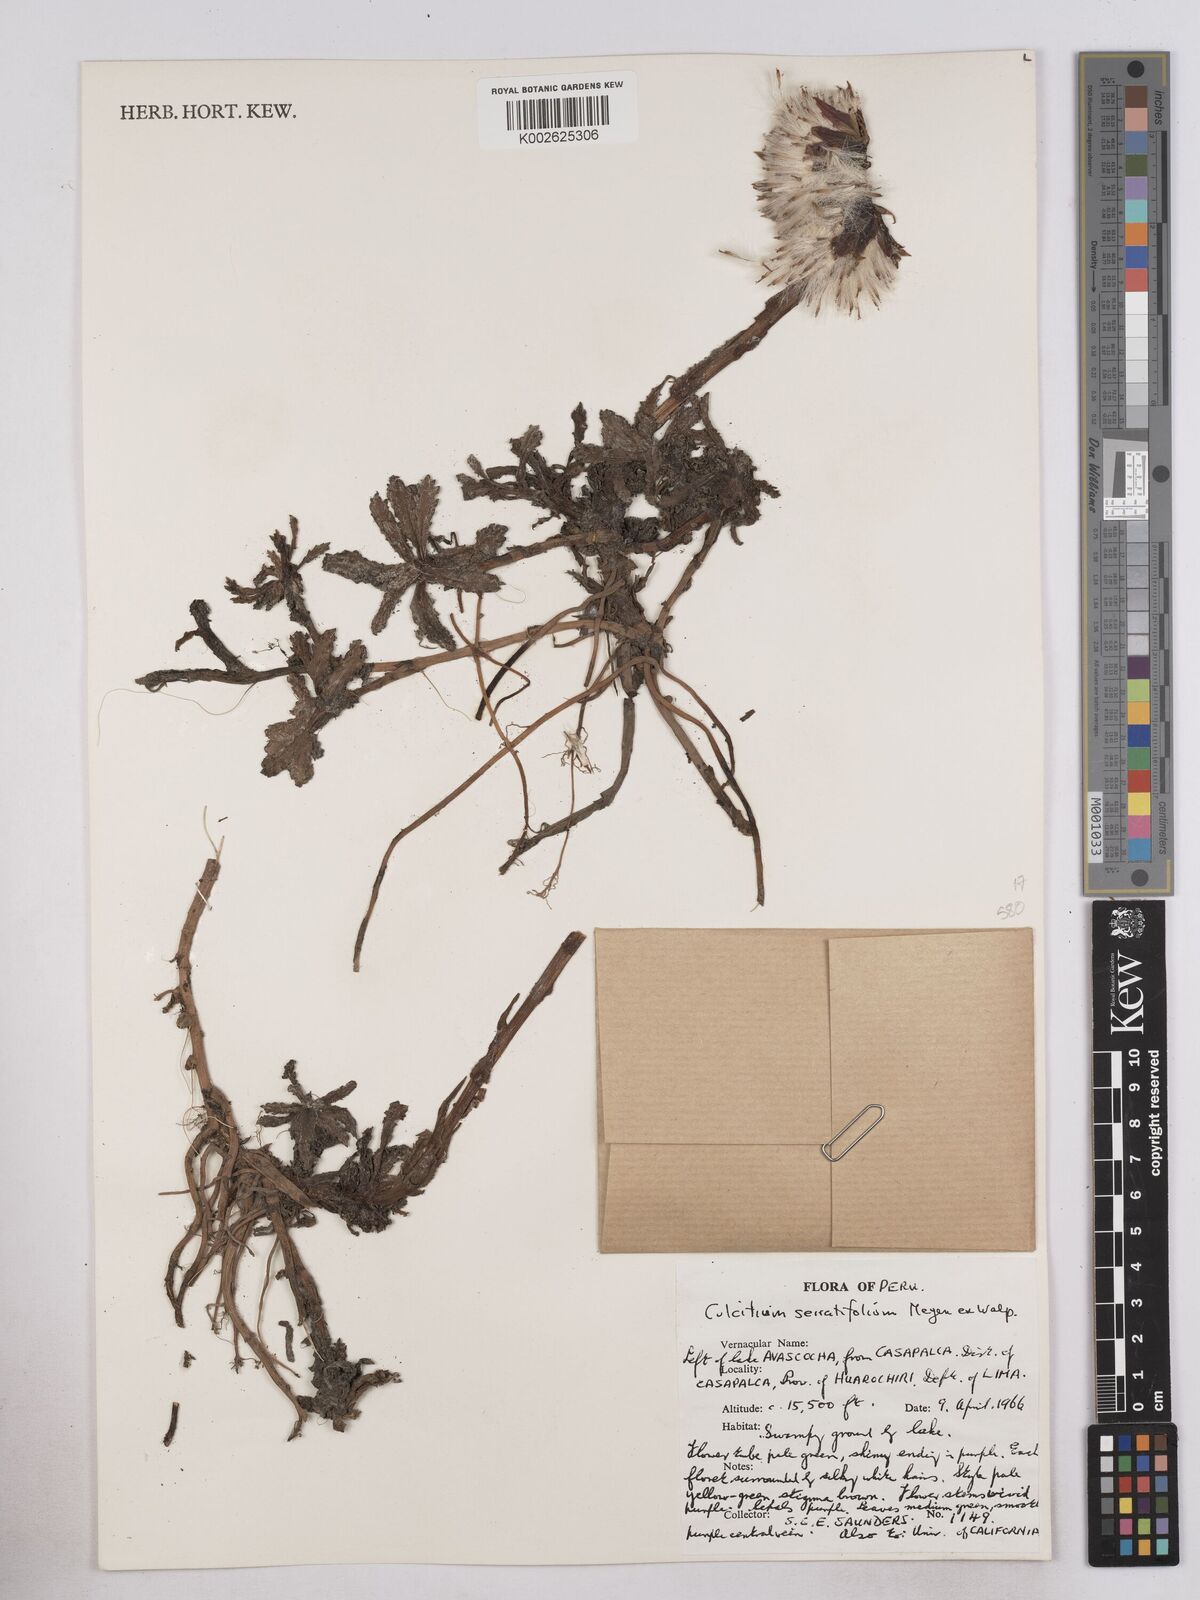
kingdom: Plantae
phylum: Tracheophyta
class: Magnoliopsida
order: Asterales
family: Asteraceae
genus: Senecio
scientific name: Senecio serratifolius
